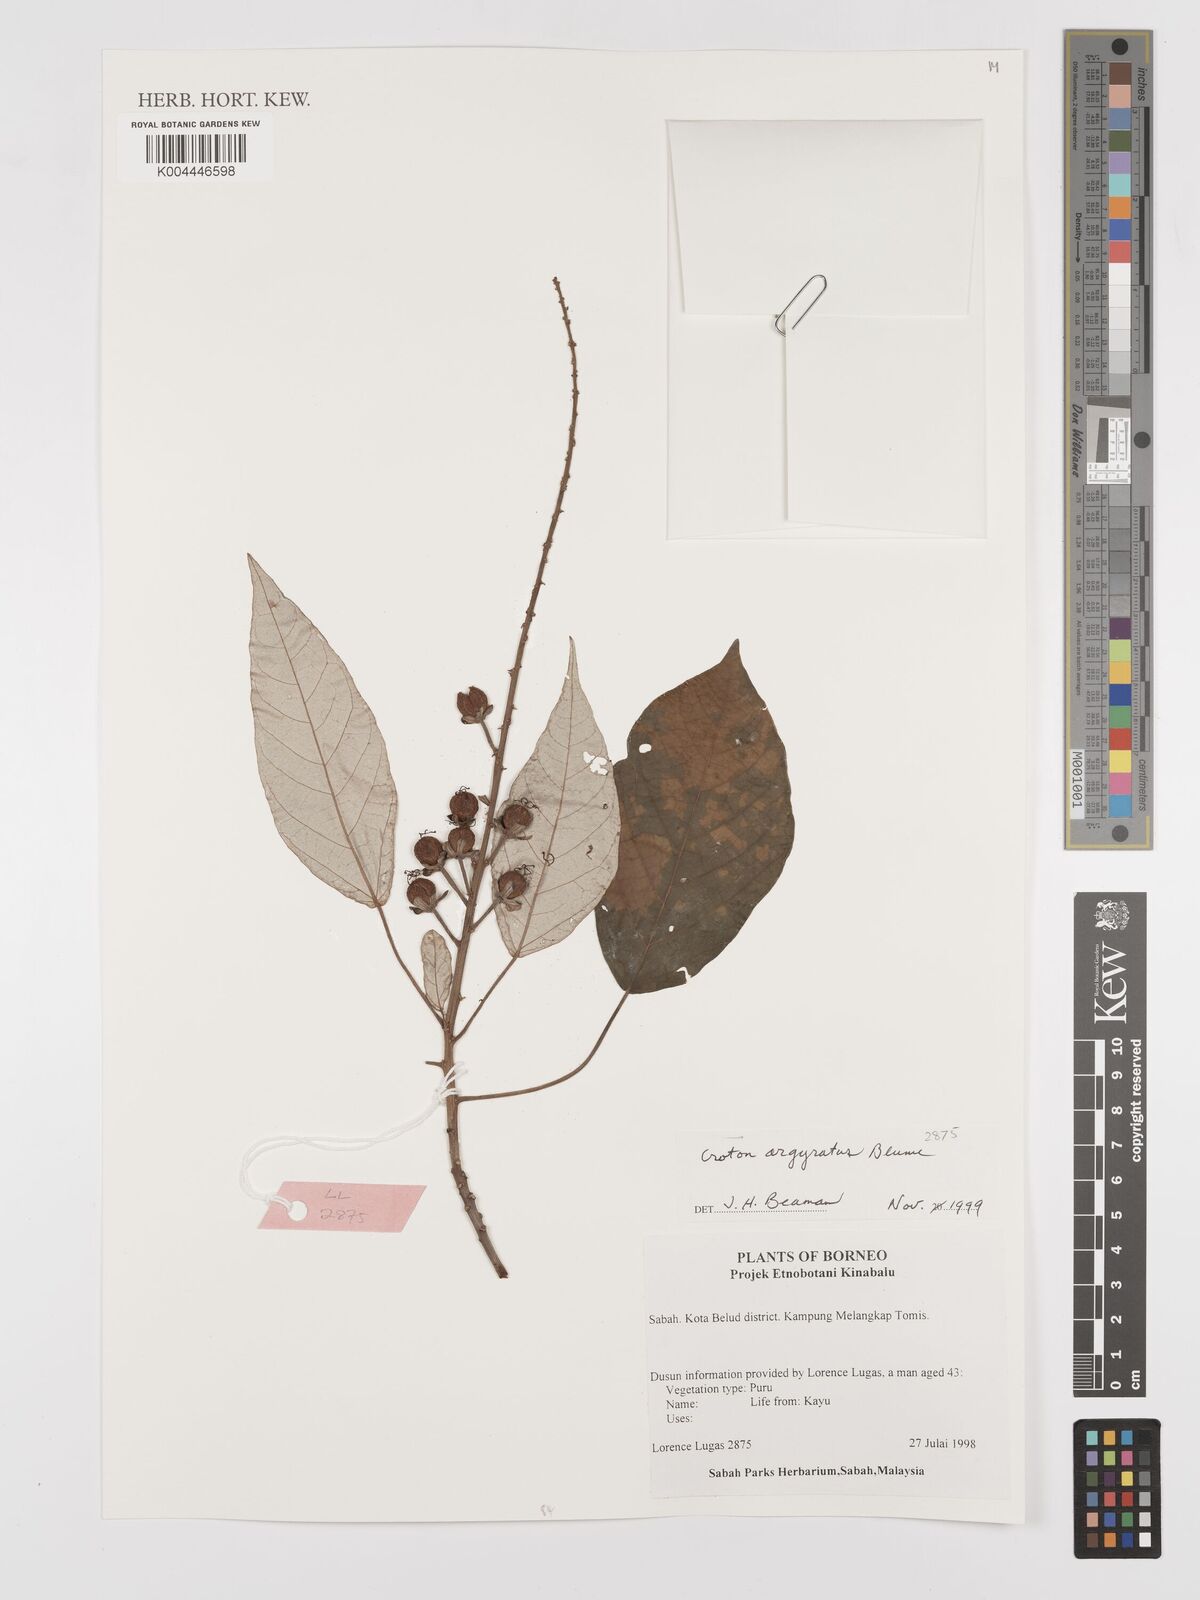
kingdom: Plantae
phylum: Tracheophyta
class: Magnoliopsida
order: Malpighiales
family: Euphorbiaceae
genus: Croton
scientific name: Croton argyratus
